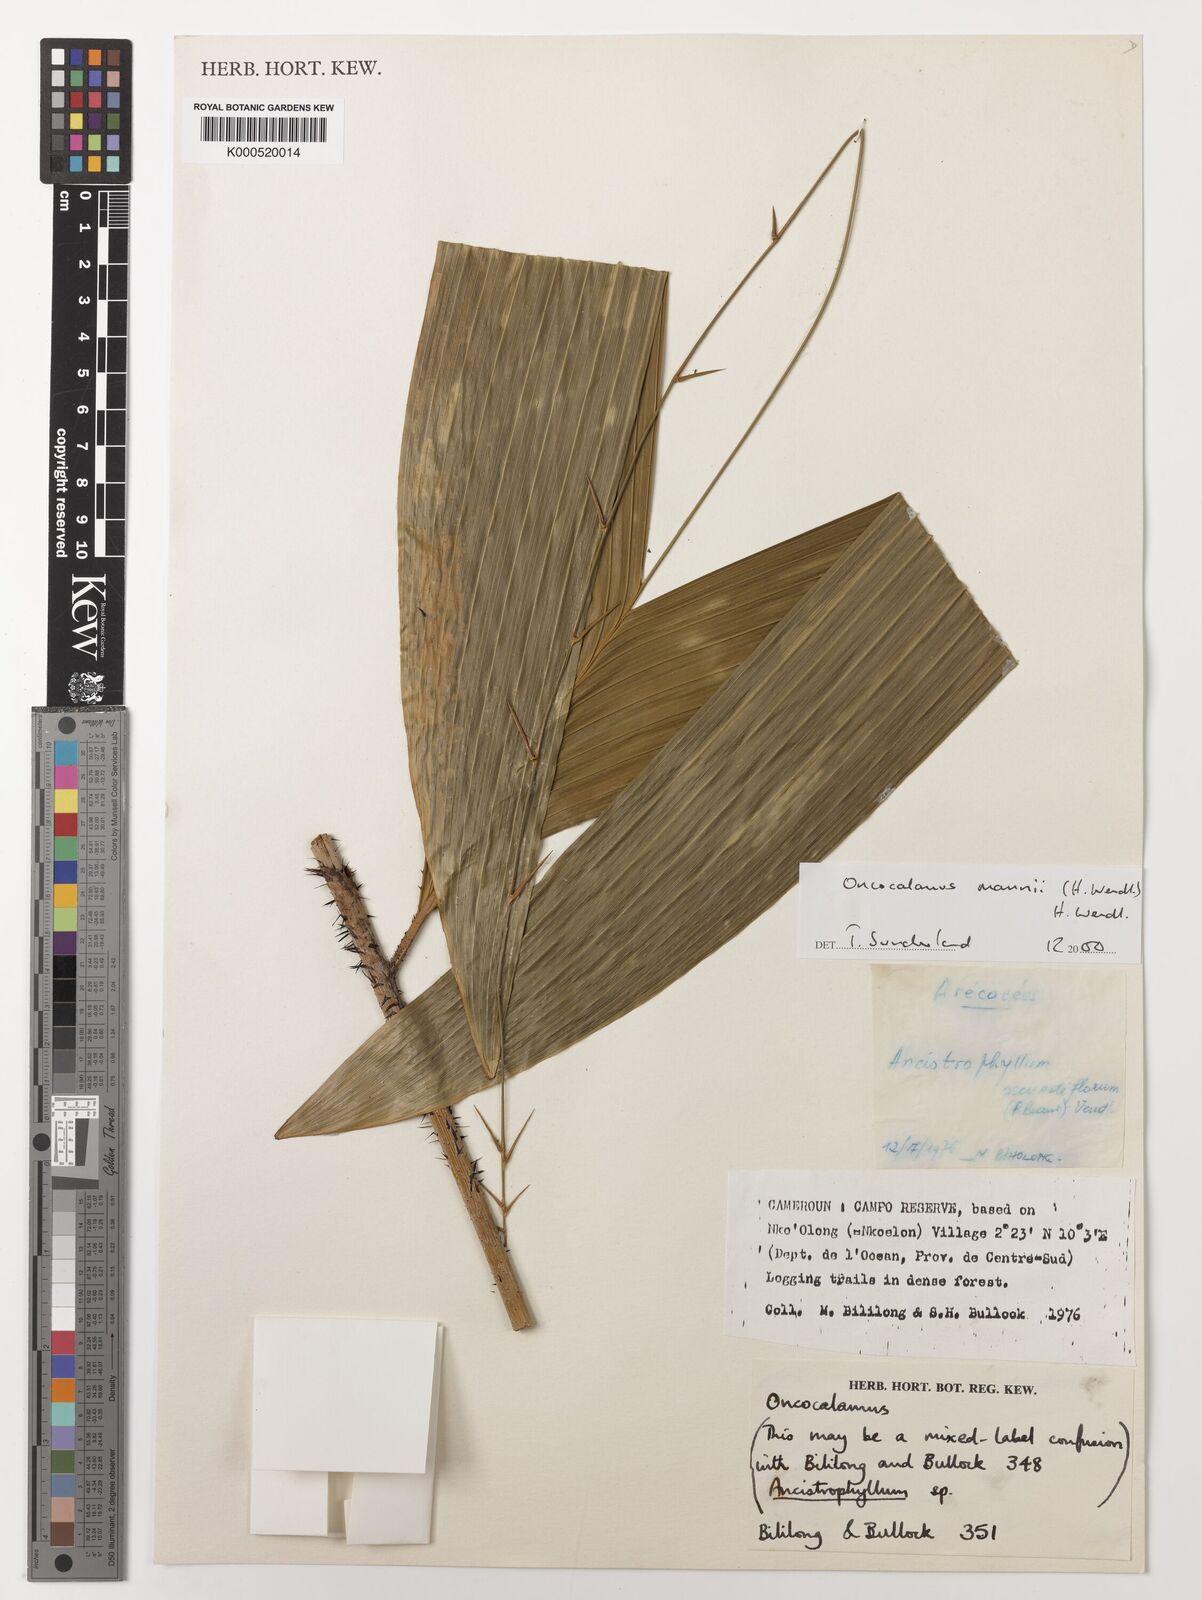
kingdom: Plantae
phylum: Tracheophyta
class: Liliopsida
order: Arecales
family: Arecaceae
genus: Oncocalamus
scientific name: Oncocalamus mannii
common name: Rattan
